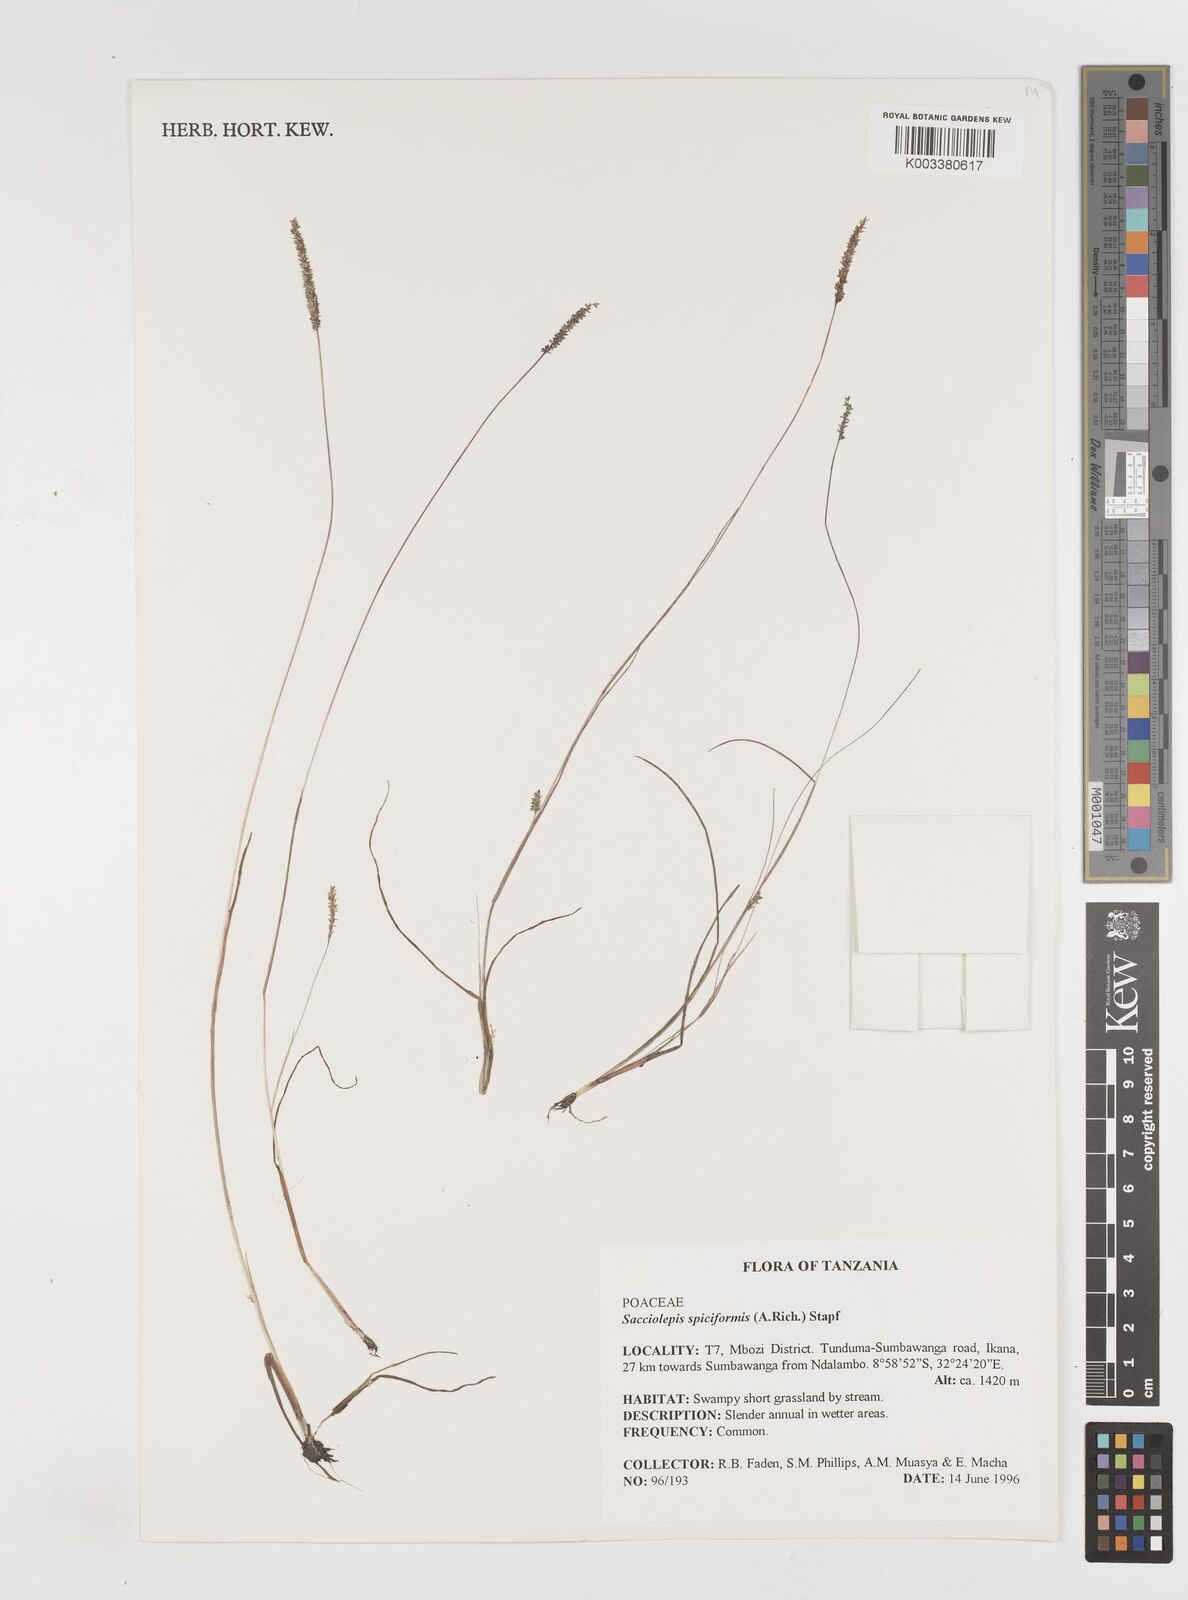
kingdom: Plantae
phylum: Tracheophyta
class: Liliopsida
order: Poales
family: Poaceae
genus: Sacciolepis
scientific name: Sacciolepis myosuroides
